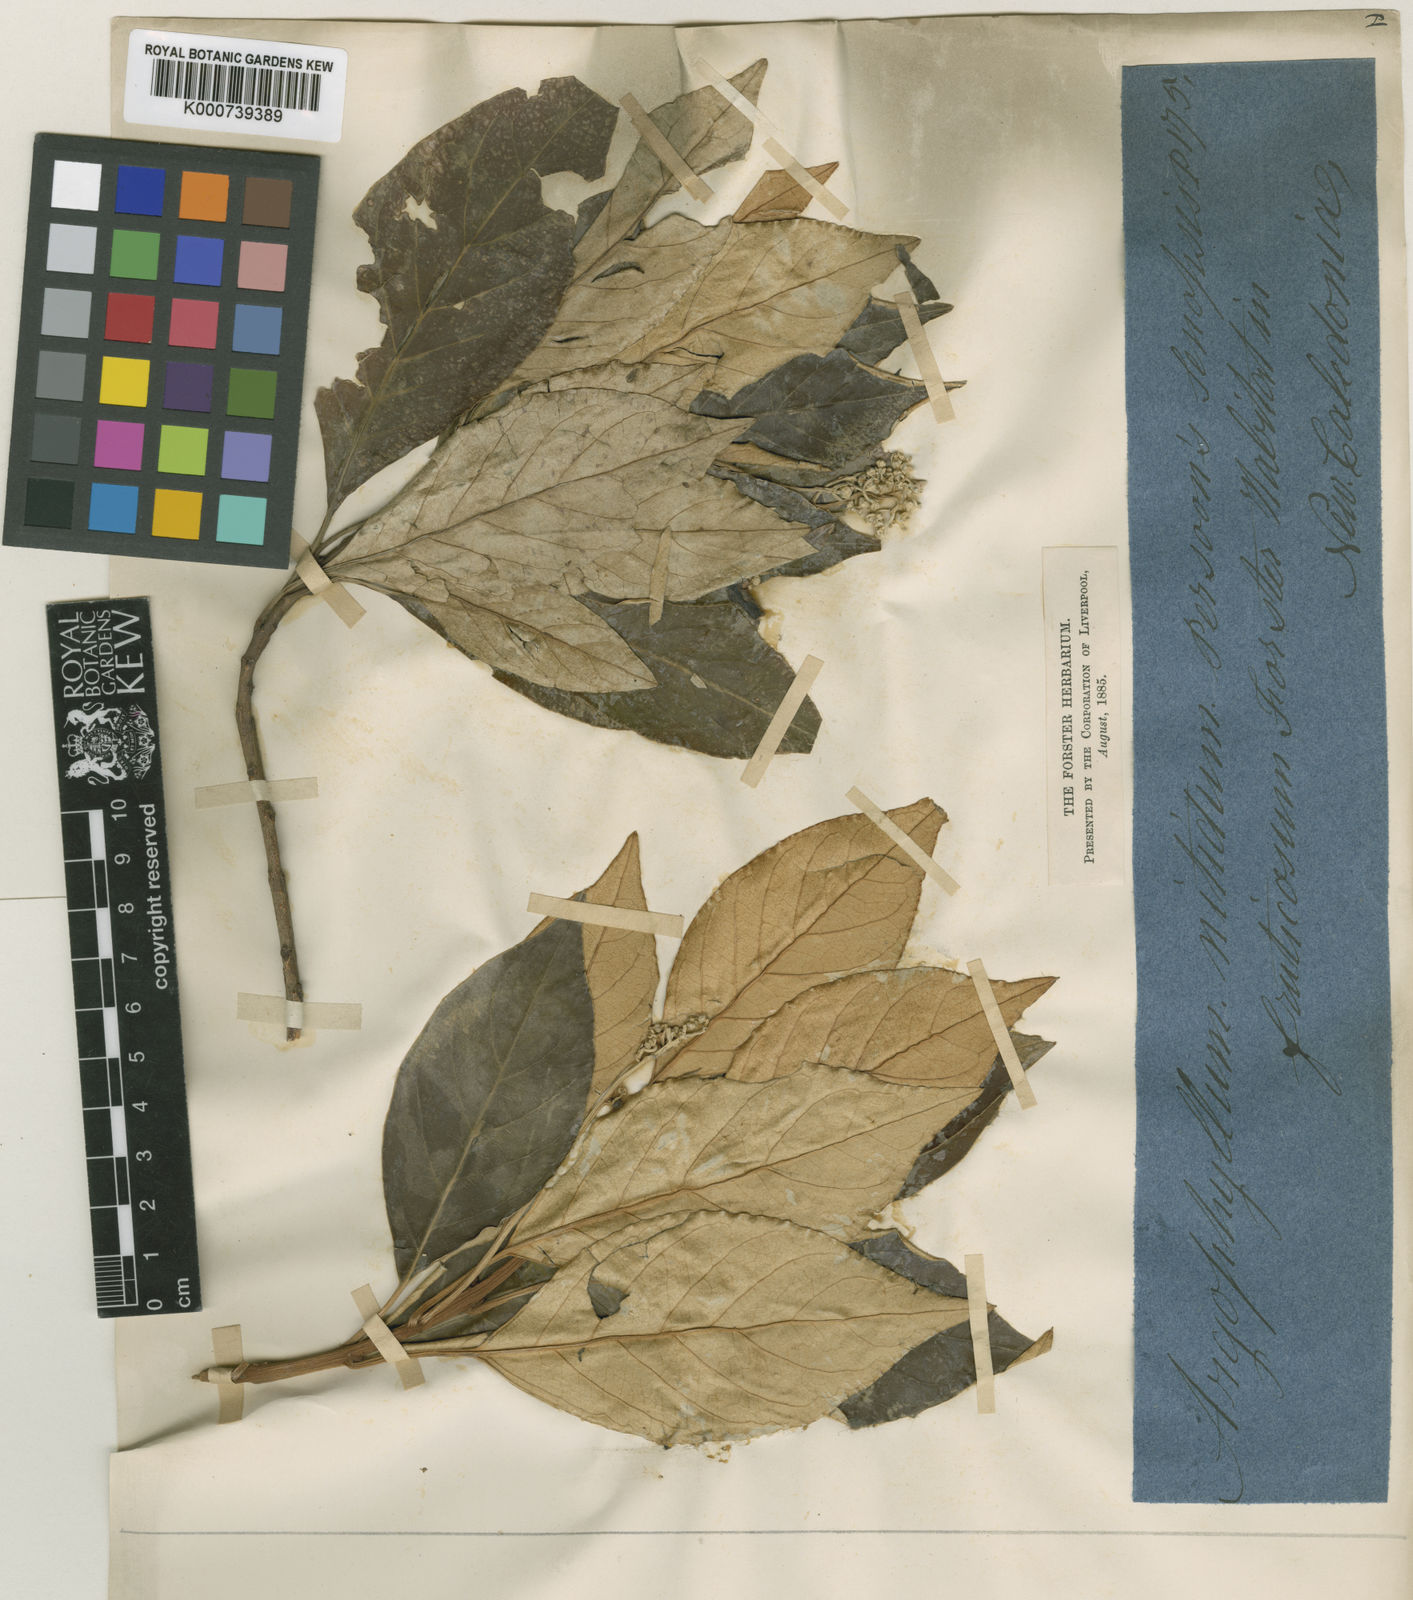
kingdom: Plantae
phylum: Tracheophyta
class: Magnoliopsida
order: Asterales
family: Argophyllaceae
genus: Argophyllum
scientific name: Argophyllum nitidum
